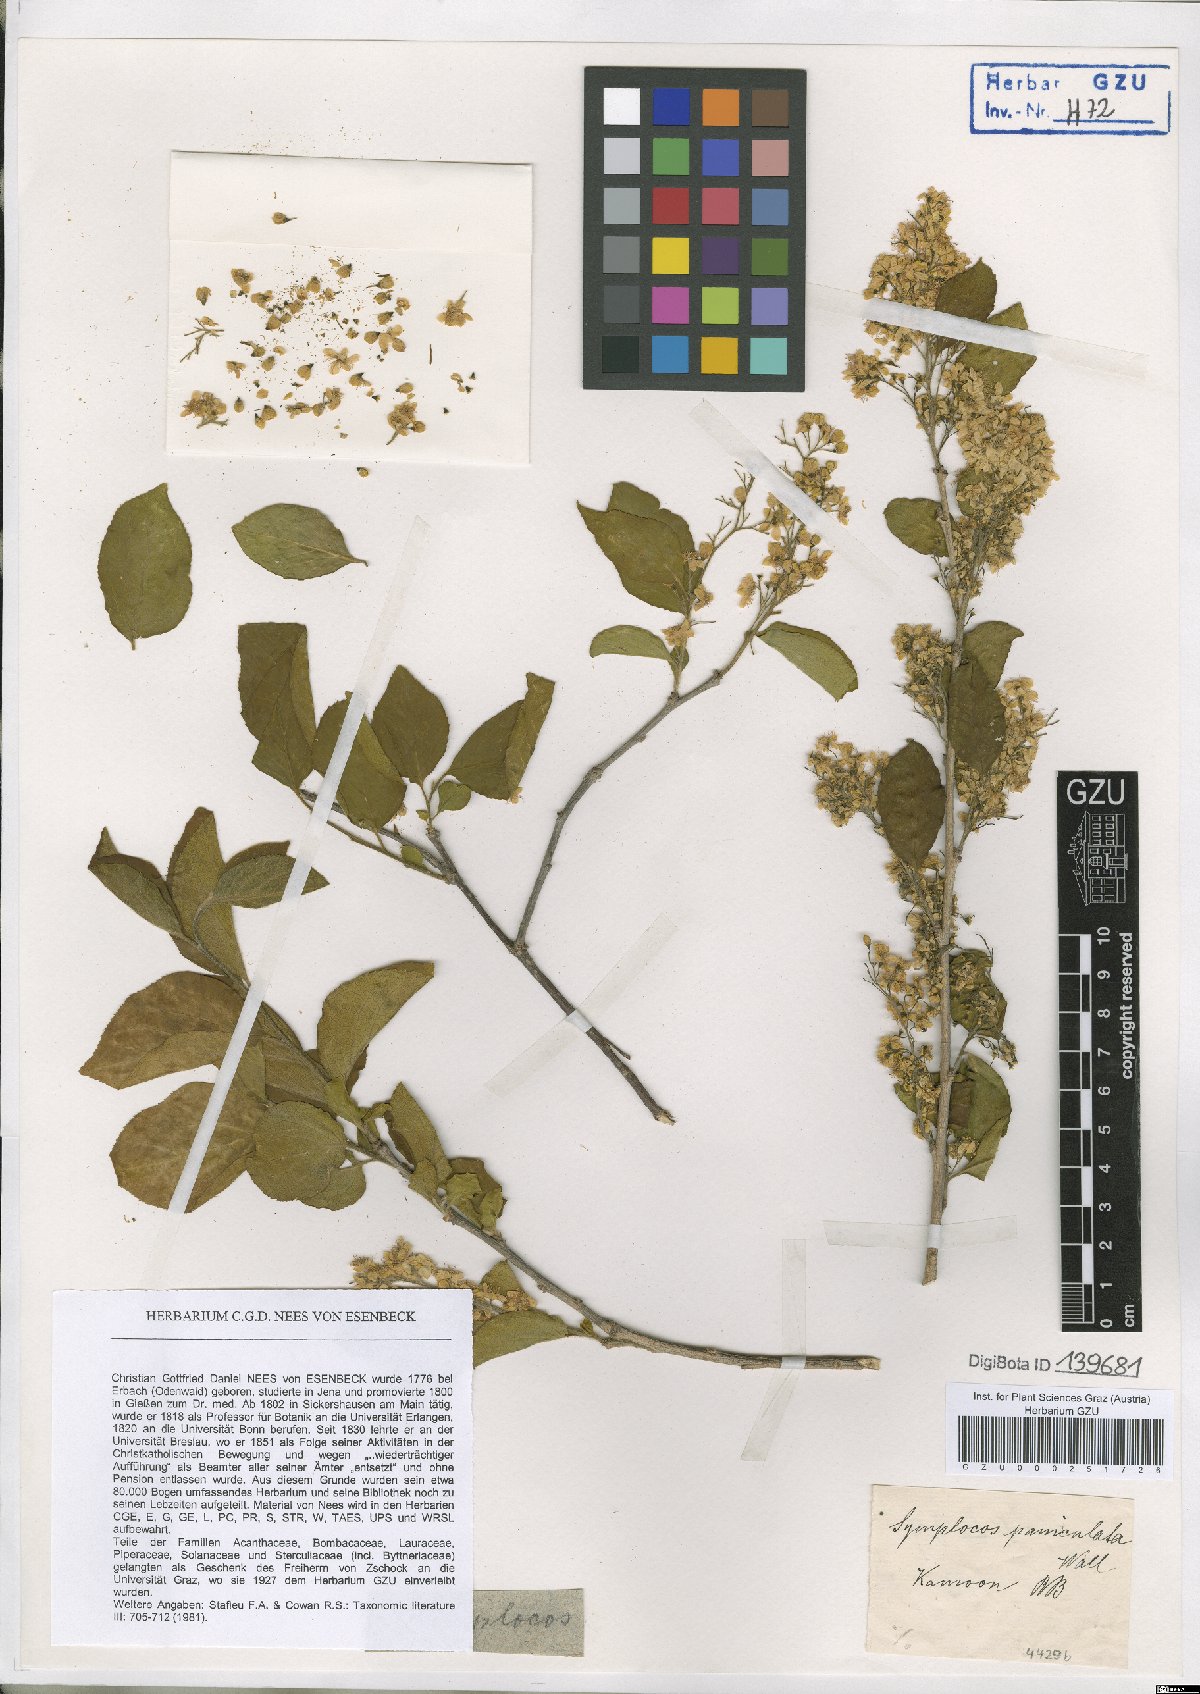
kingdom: Plantae
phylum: Tracheophyta
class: Magnoliopsida
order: Ericales
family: Symplocaceae
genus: Symplocos
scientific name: Symplocos paniculata
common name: Sapphire-berry
